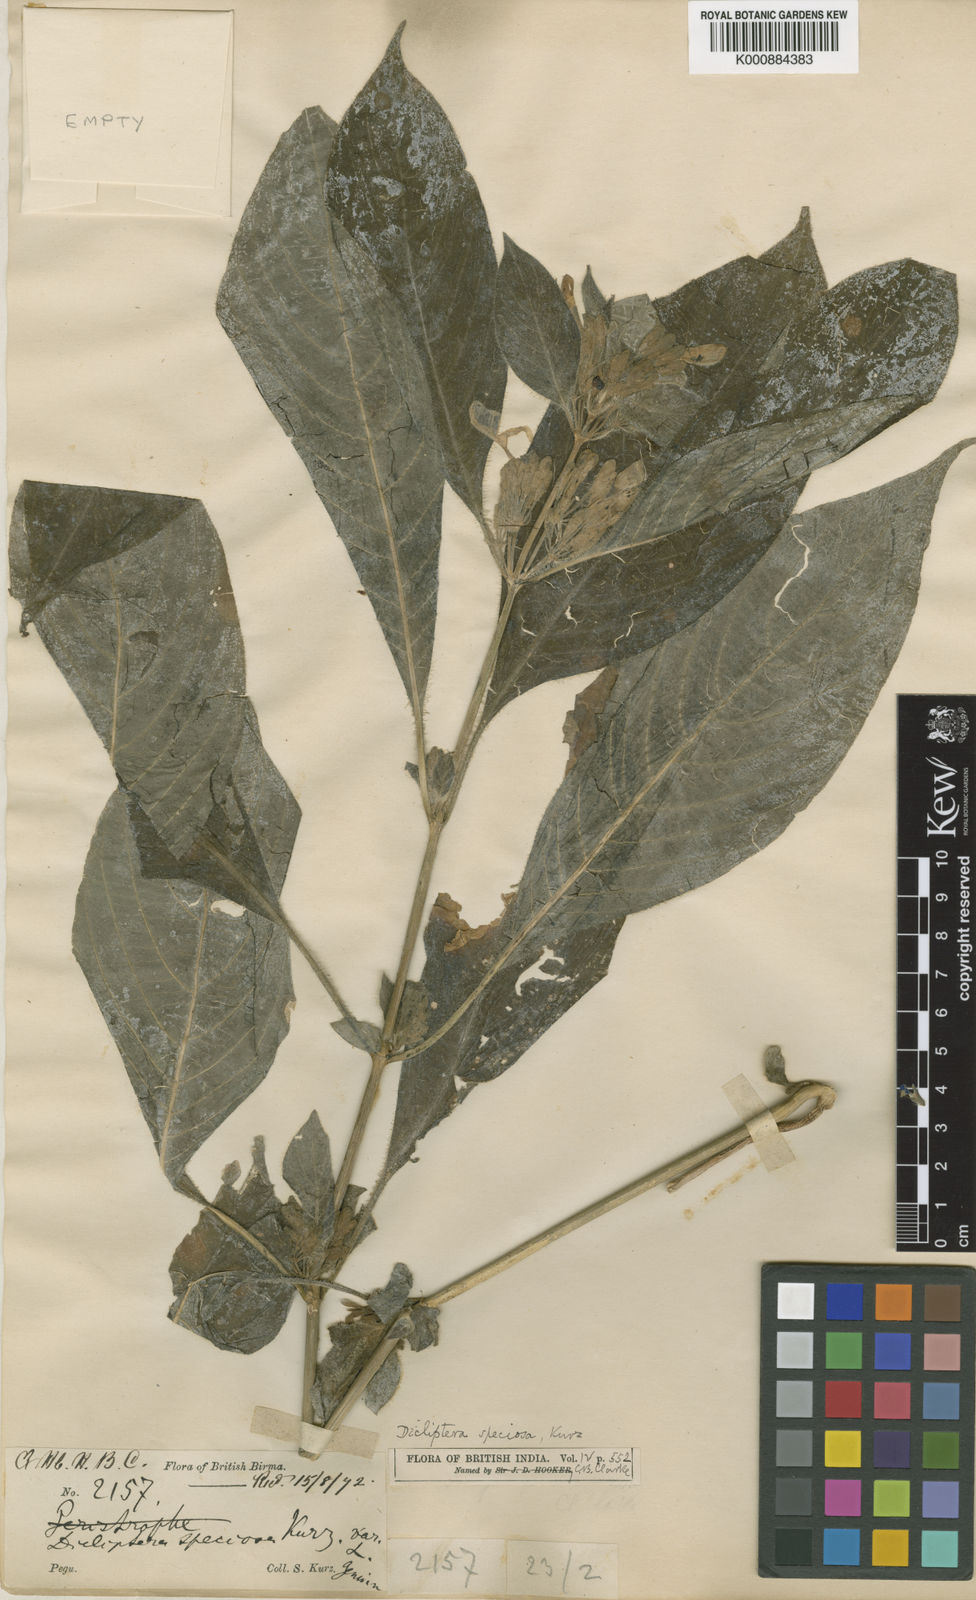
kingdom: Plantae
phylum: Tracheophyta
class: Magnoliopsida
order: Lamiales
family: Acanthaceae
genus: Dicliptera
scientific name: Dicliptera speciosa
